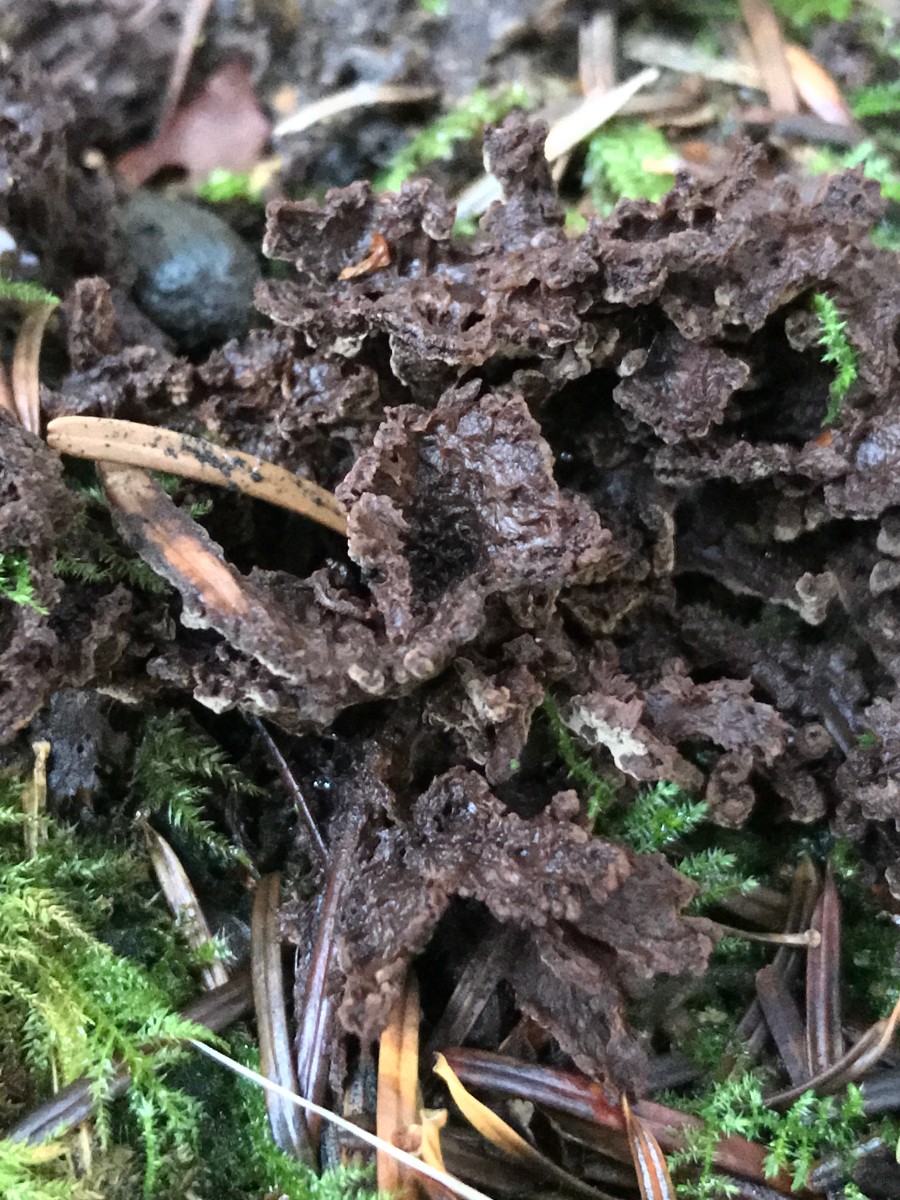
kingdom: Fungi
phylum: Basidiomycota
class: Agaricomycetes
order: Thelephorales
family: Thelephoraceae
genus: Thelephora
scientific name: Thelephora terrestris
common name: fliget frynsesvamp
